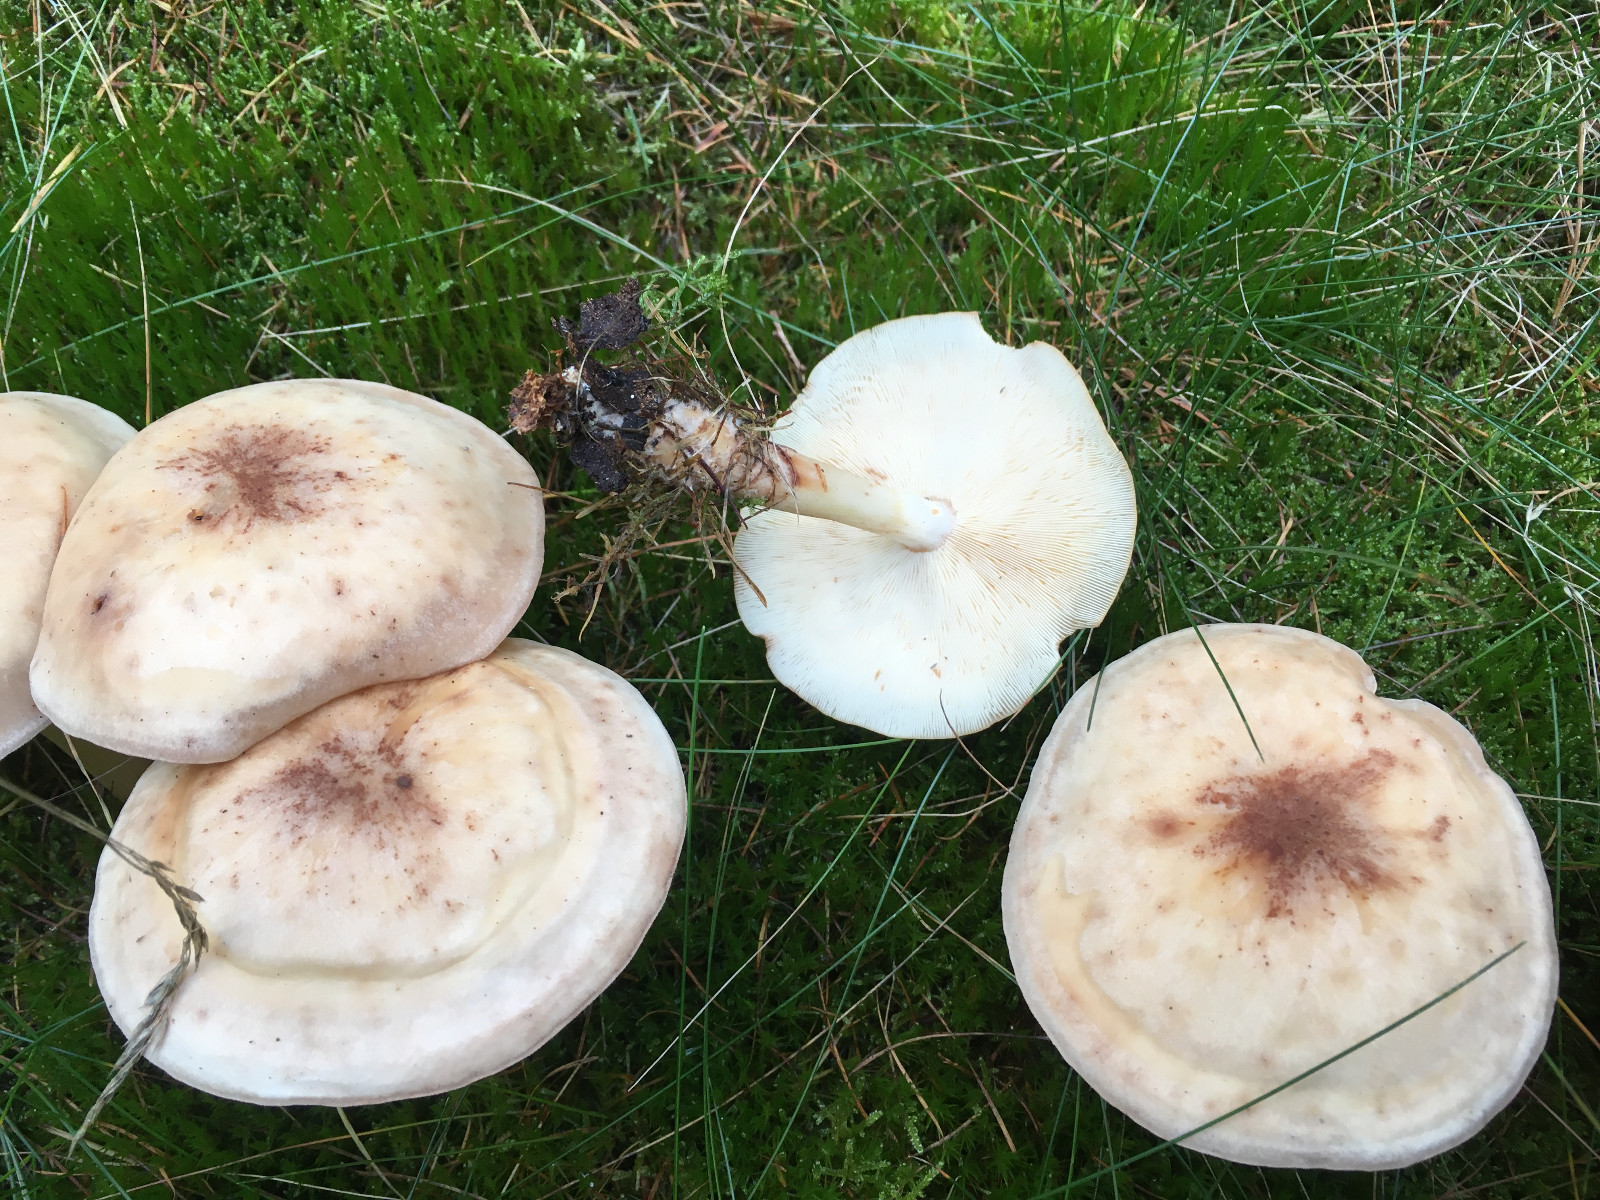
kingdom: Fungi
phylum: Basidiomycota
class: Agaricomycetes
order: Agaricales
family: Omphalotaceae
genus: Rhodocollybia
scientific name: Rhodocollybia maculata
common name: plettet fladhat
